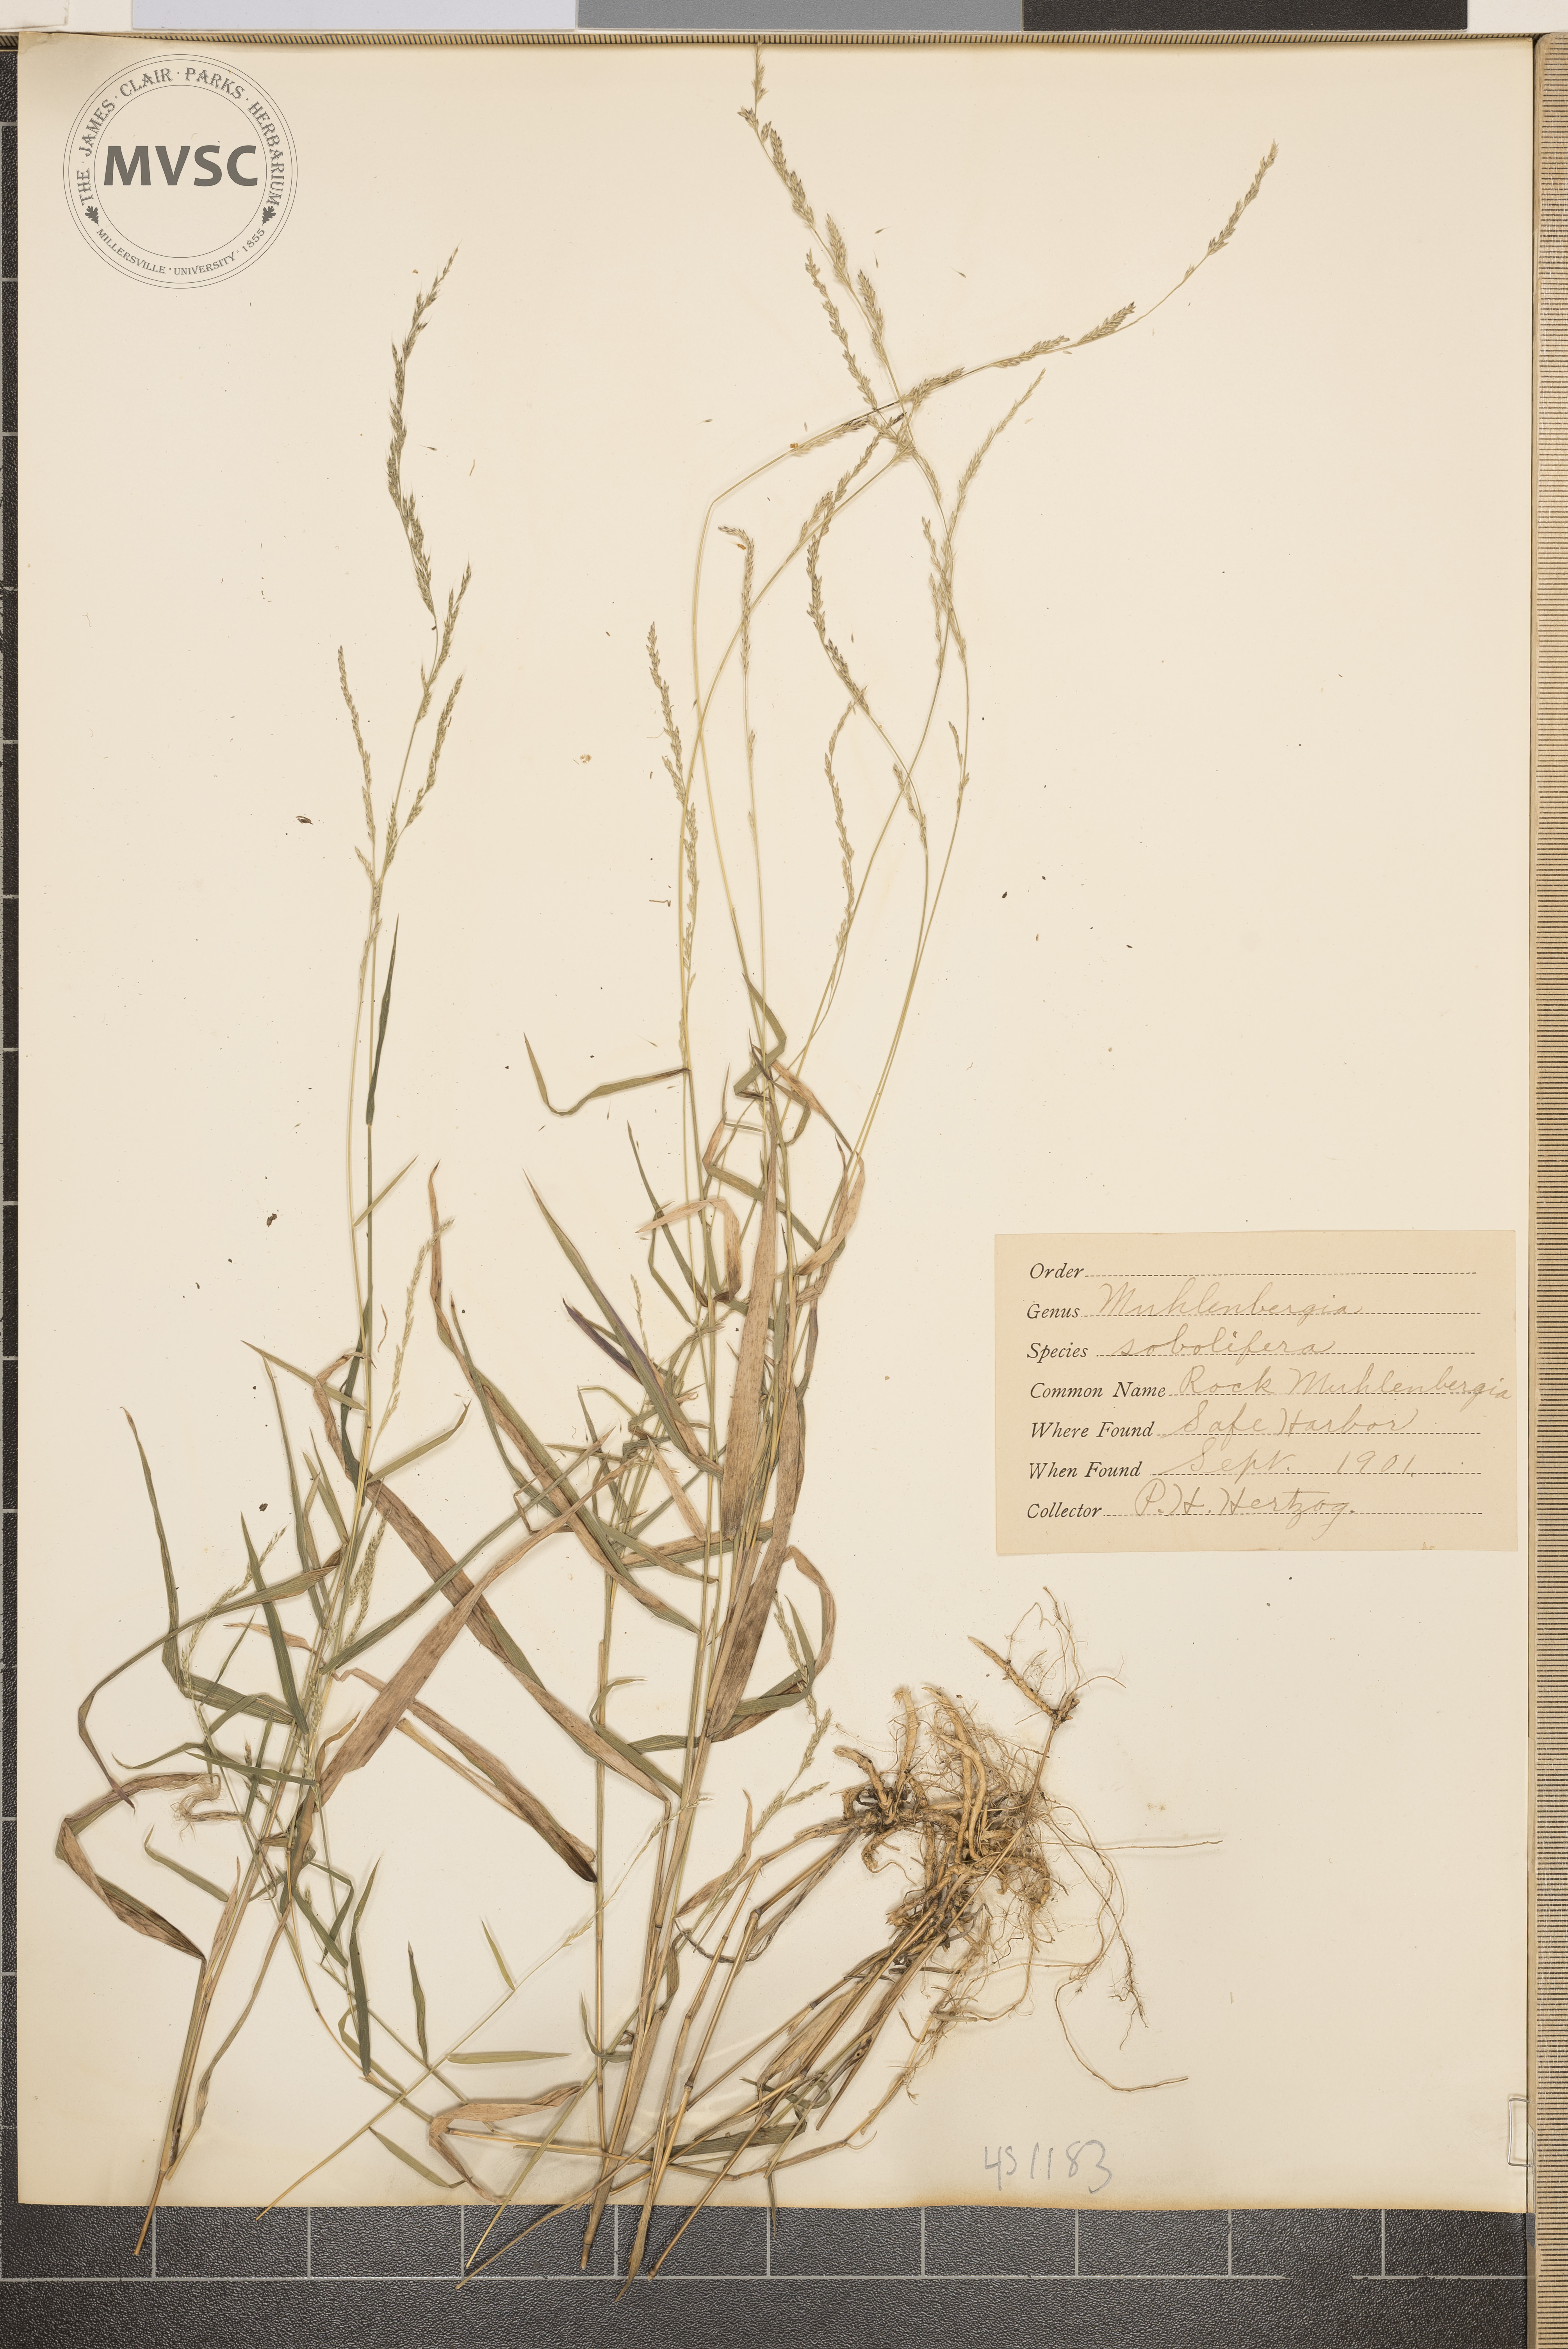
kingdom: Plantae
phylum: Tracheophyta
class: Liliopsida
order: Poales
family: Poaceae
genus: Muhlenbergia
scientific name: Muhlenbergia sobolifera
